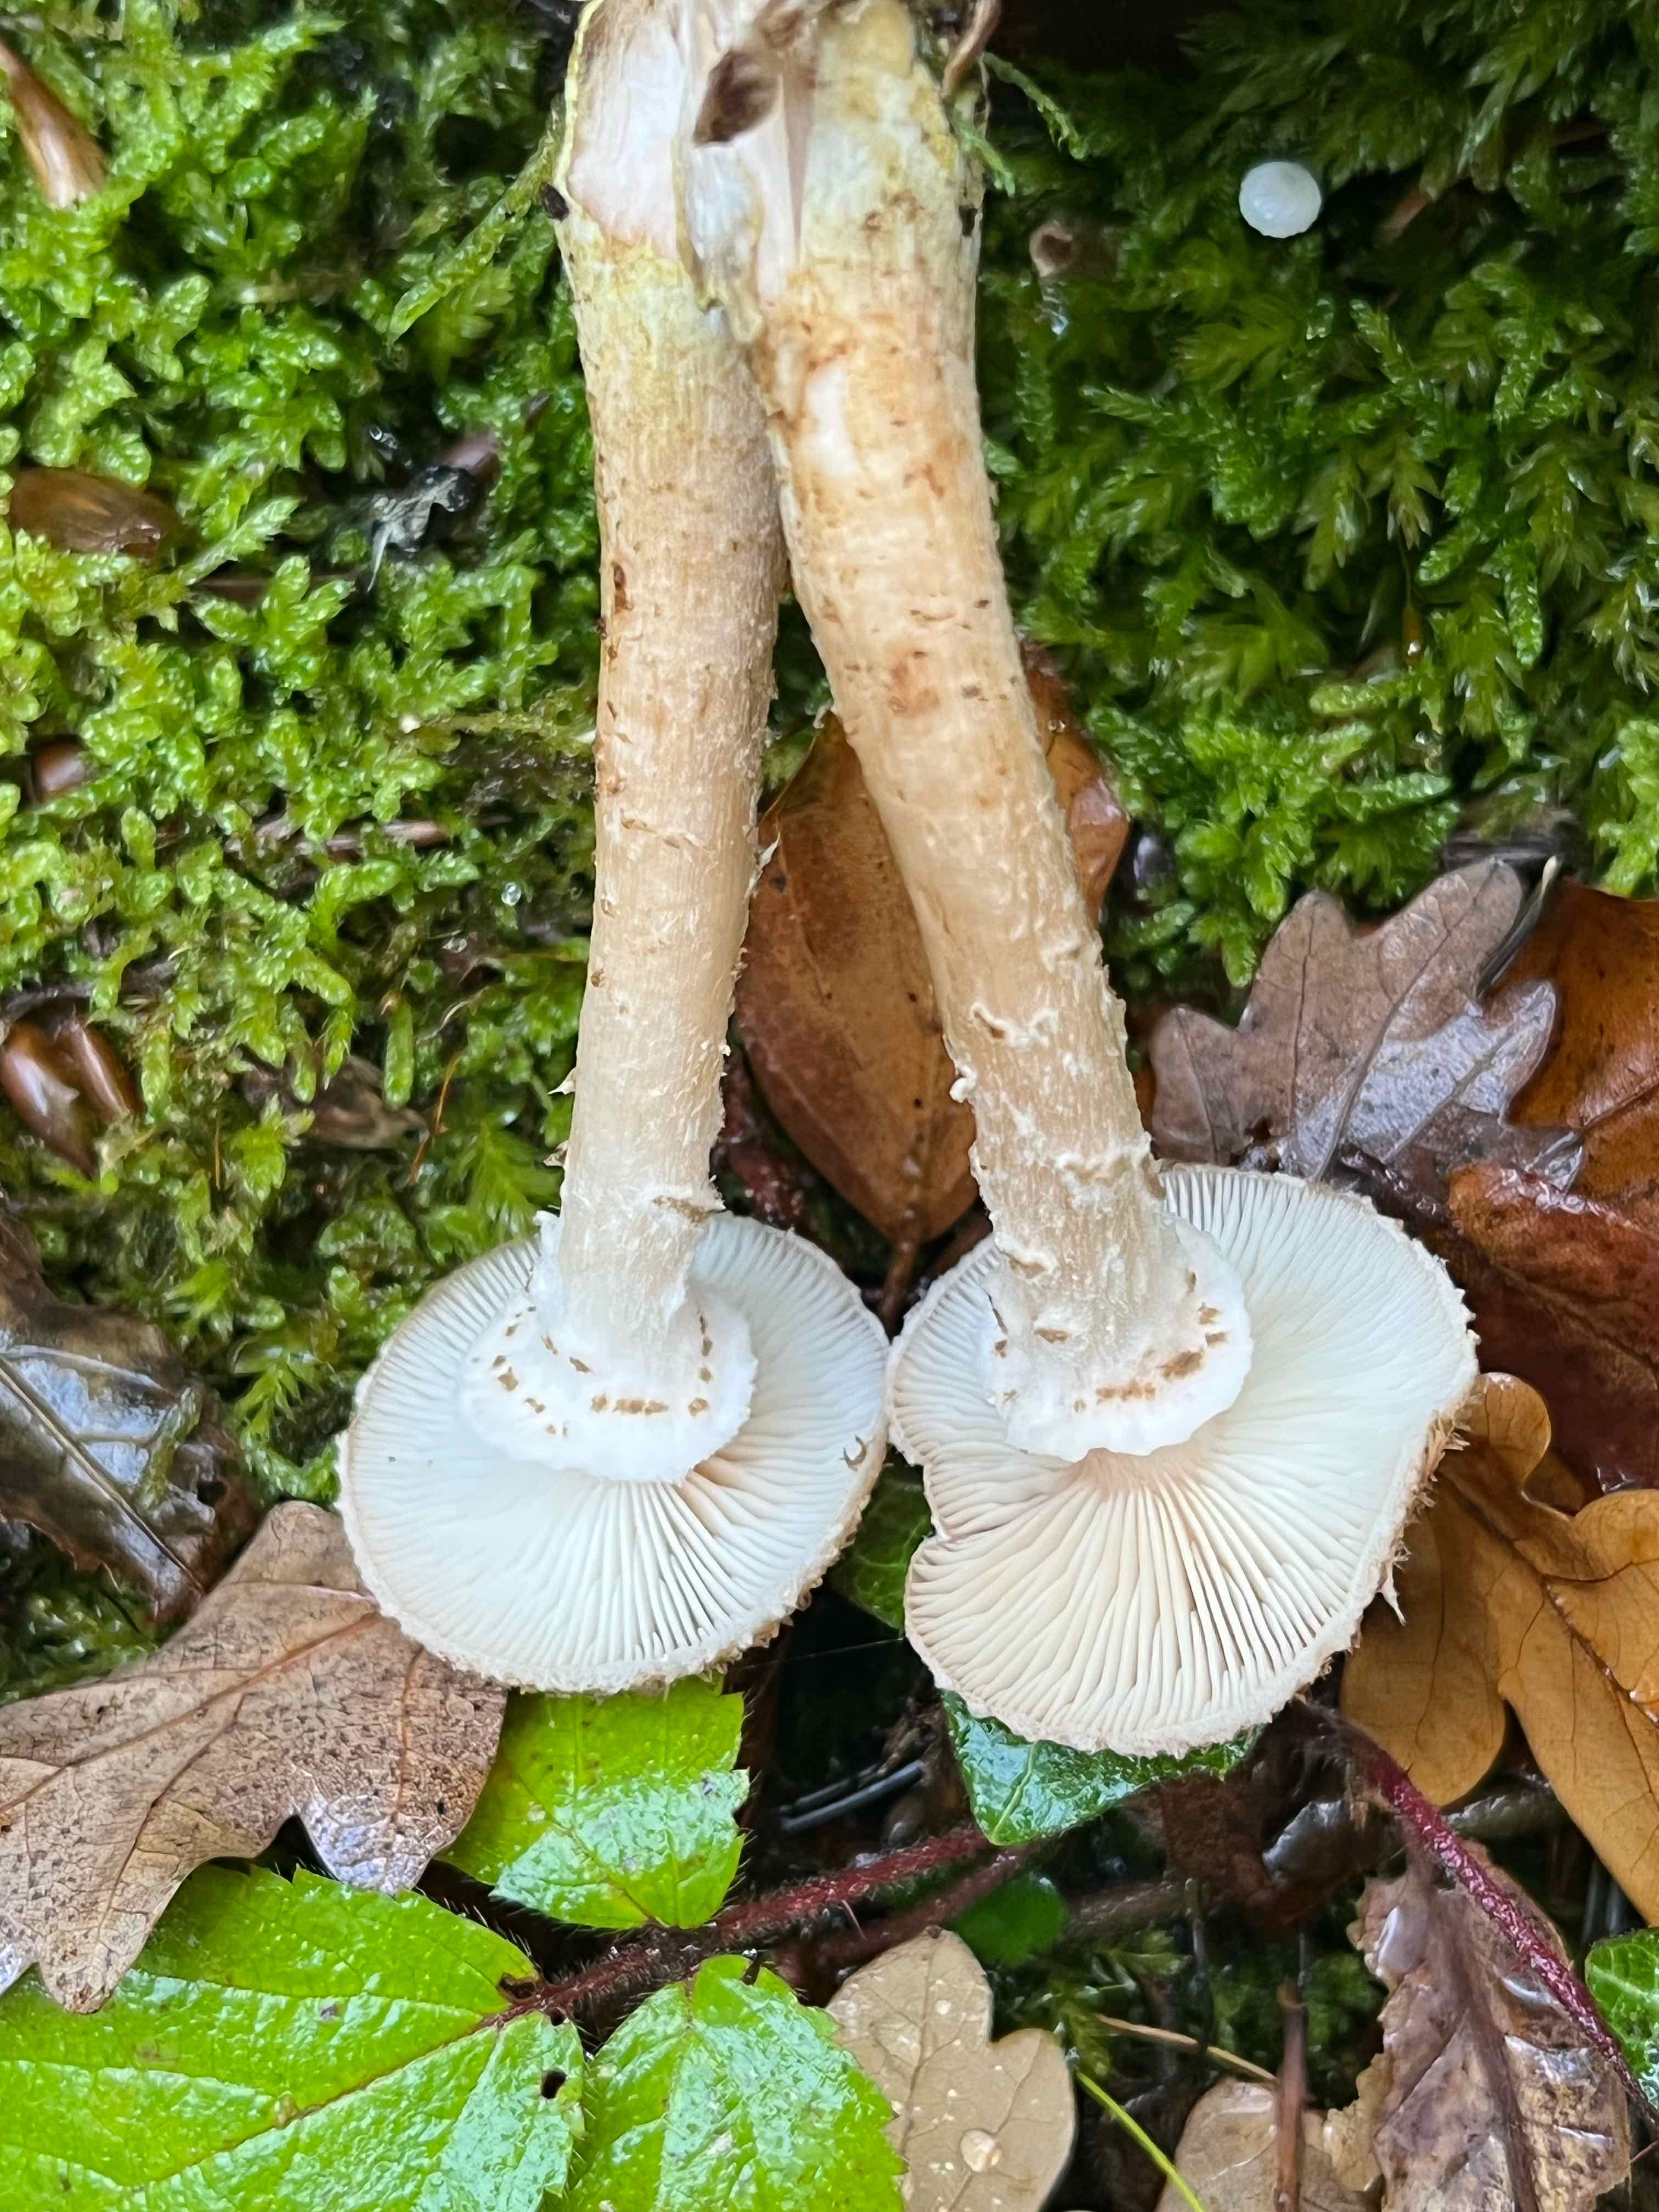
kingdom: Fungi
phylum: Basidiomycota
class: Agaricomycetes
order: Agaricales
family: Physalacriaceae
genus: Armillaria
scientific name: Armillaria ostoyae
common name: mørk honningsvamp
